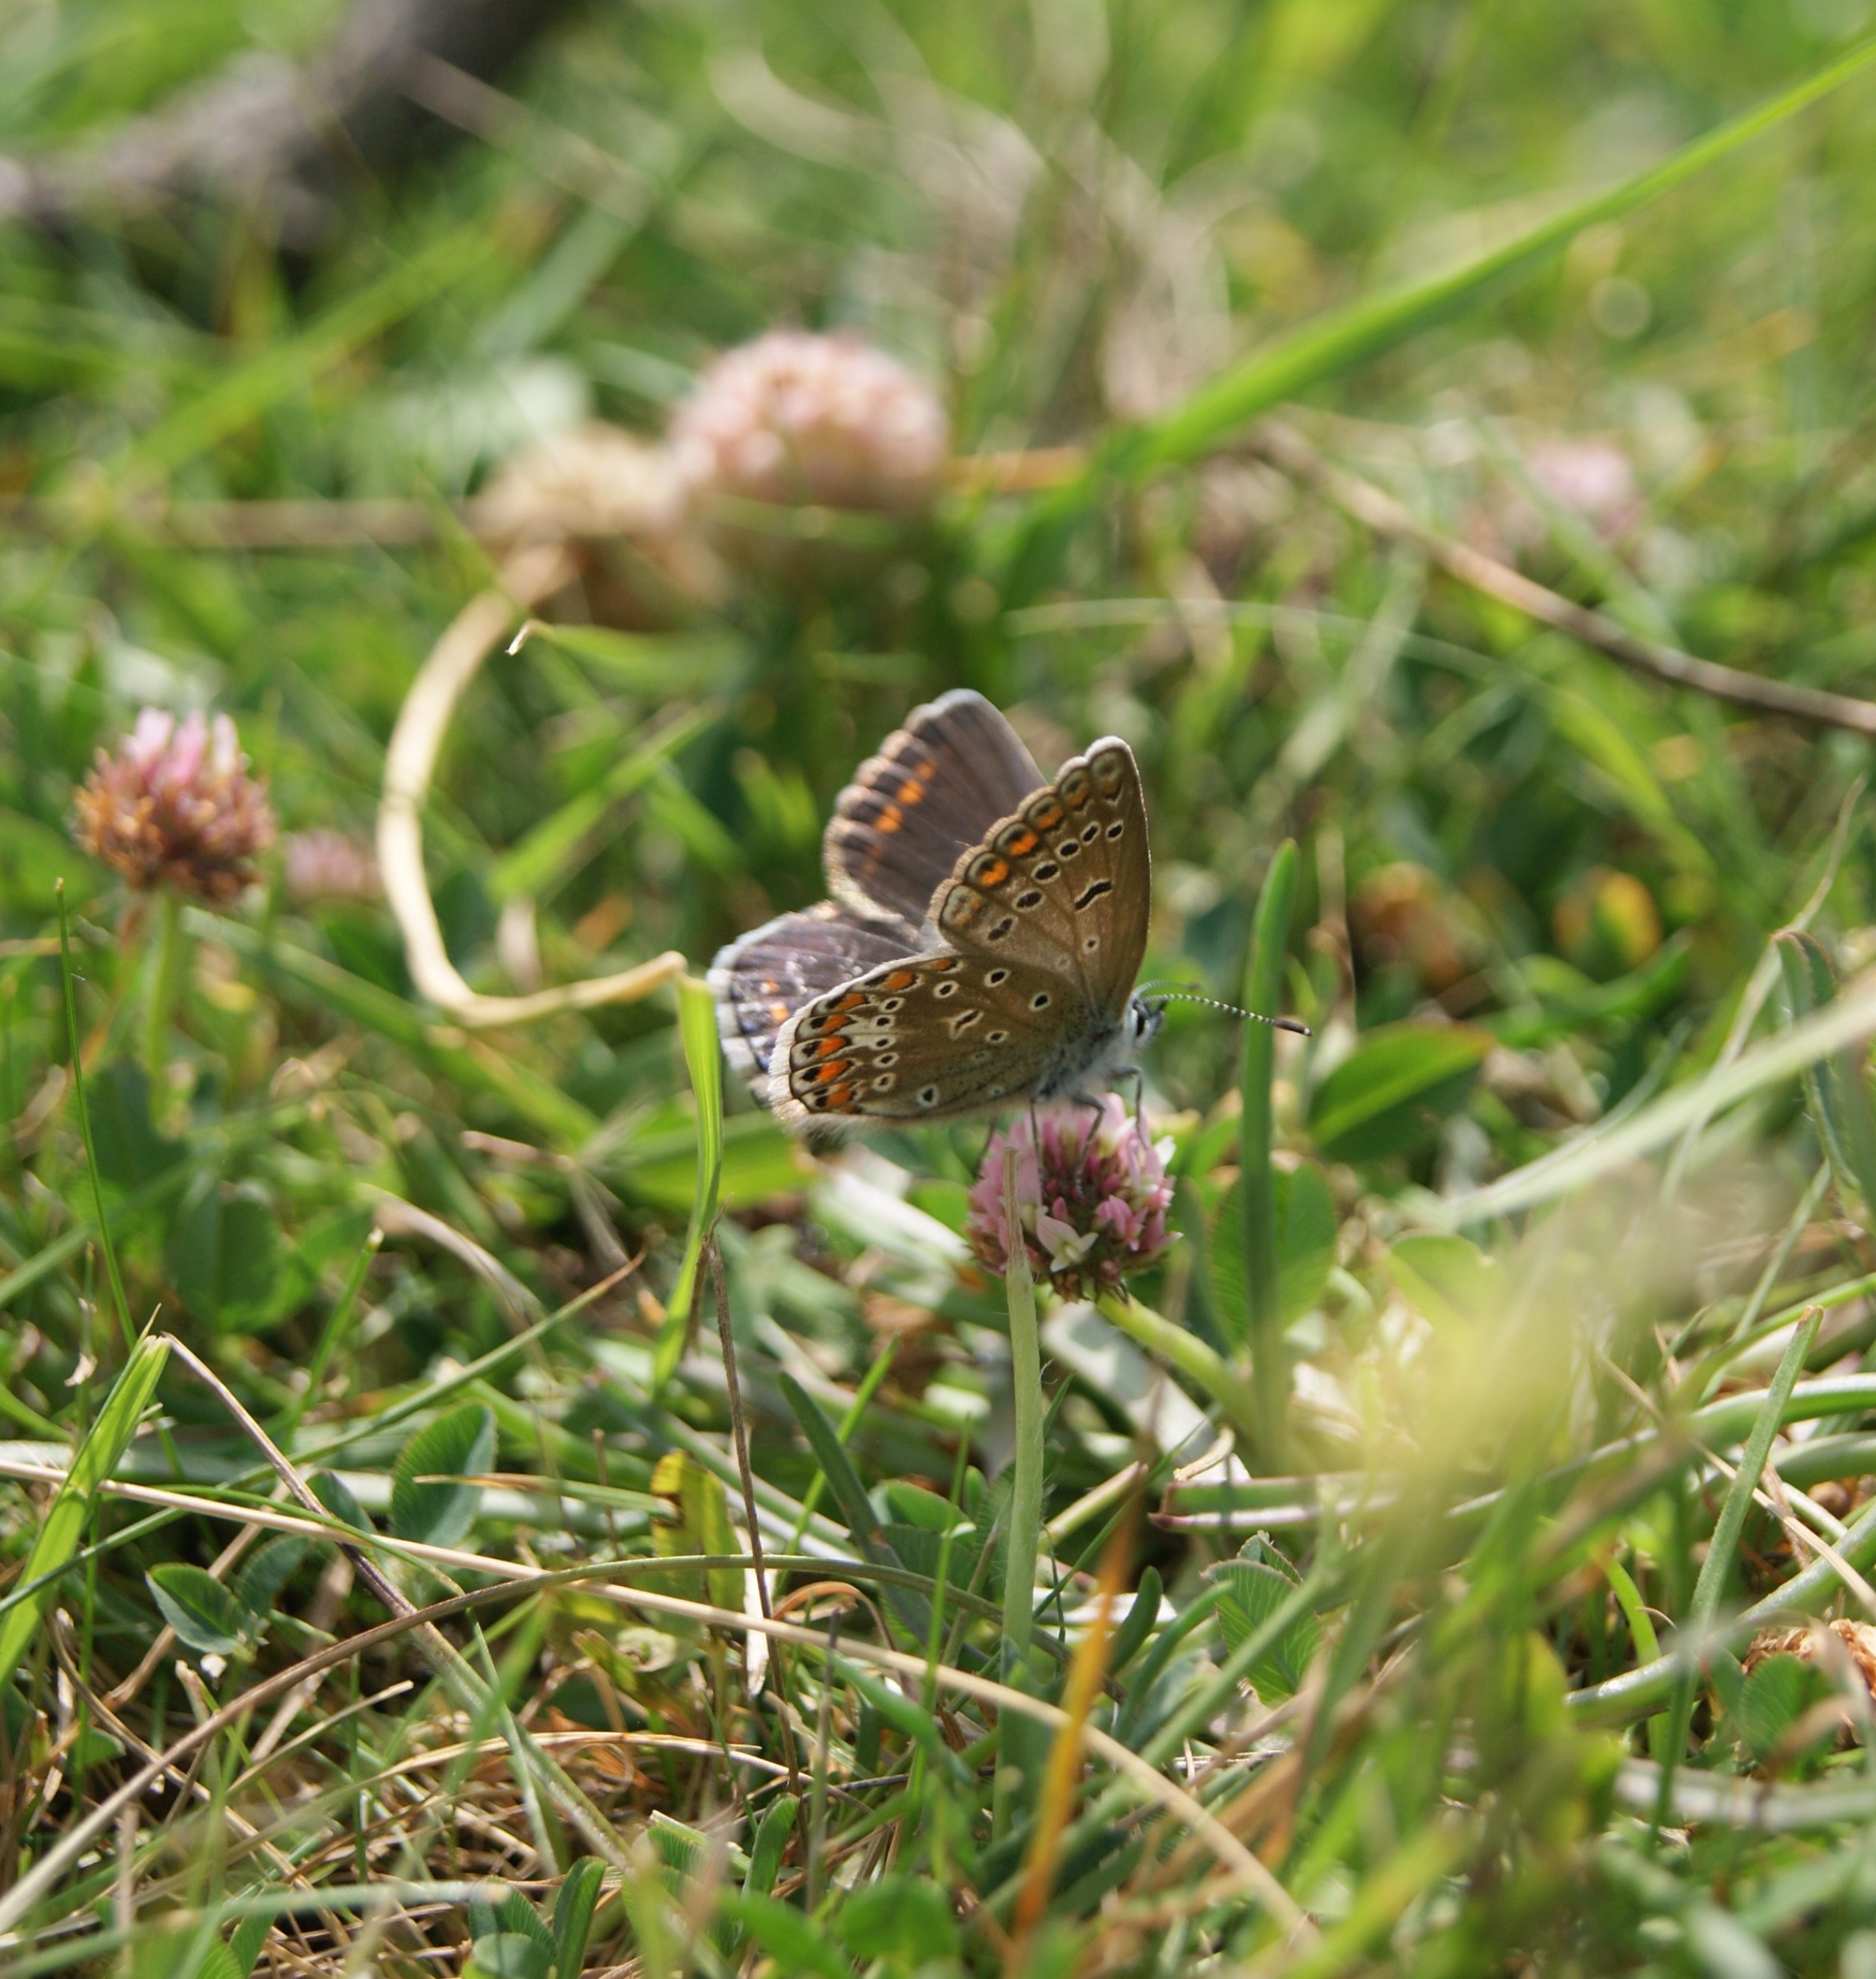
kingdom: Animalia
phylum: Arthropoda
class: Insecta
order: Lepidoptera
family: Lycaenidae
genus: Polyommatus
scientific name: Polyommatus icarus
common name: Almindelig blåfugl
